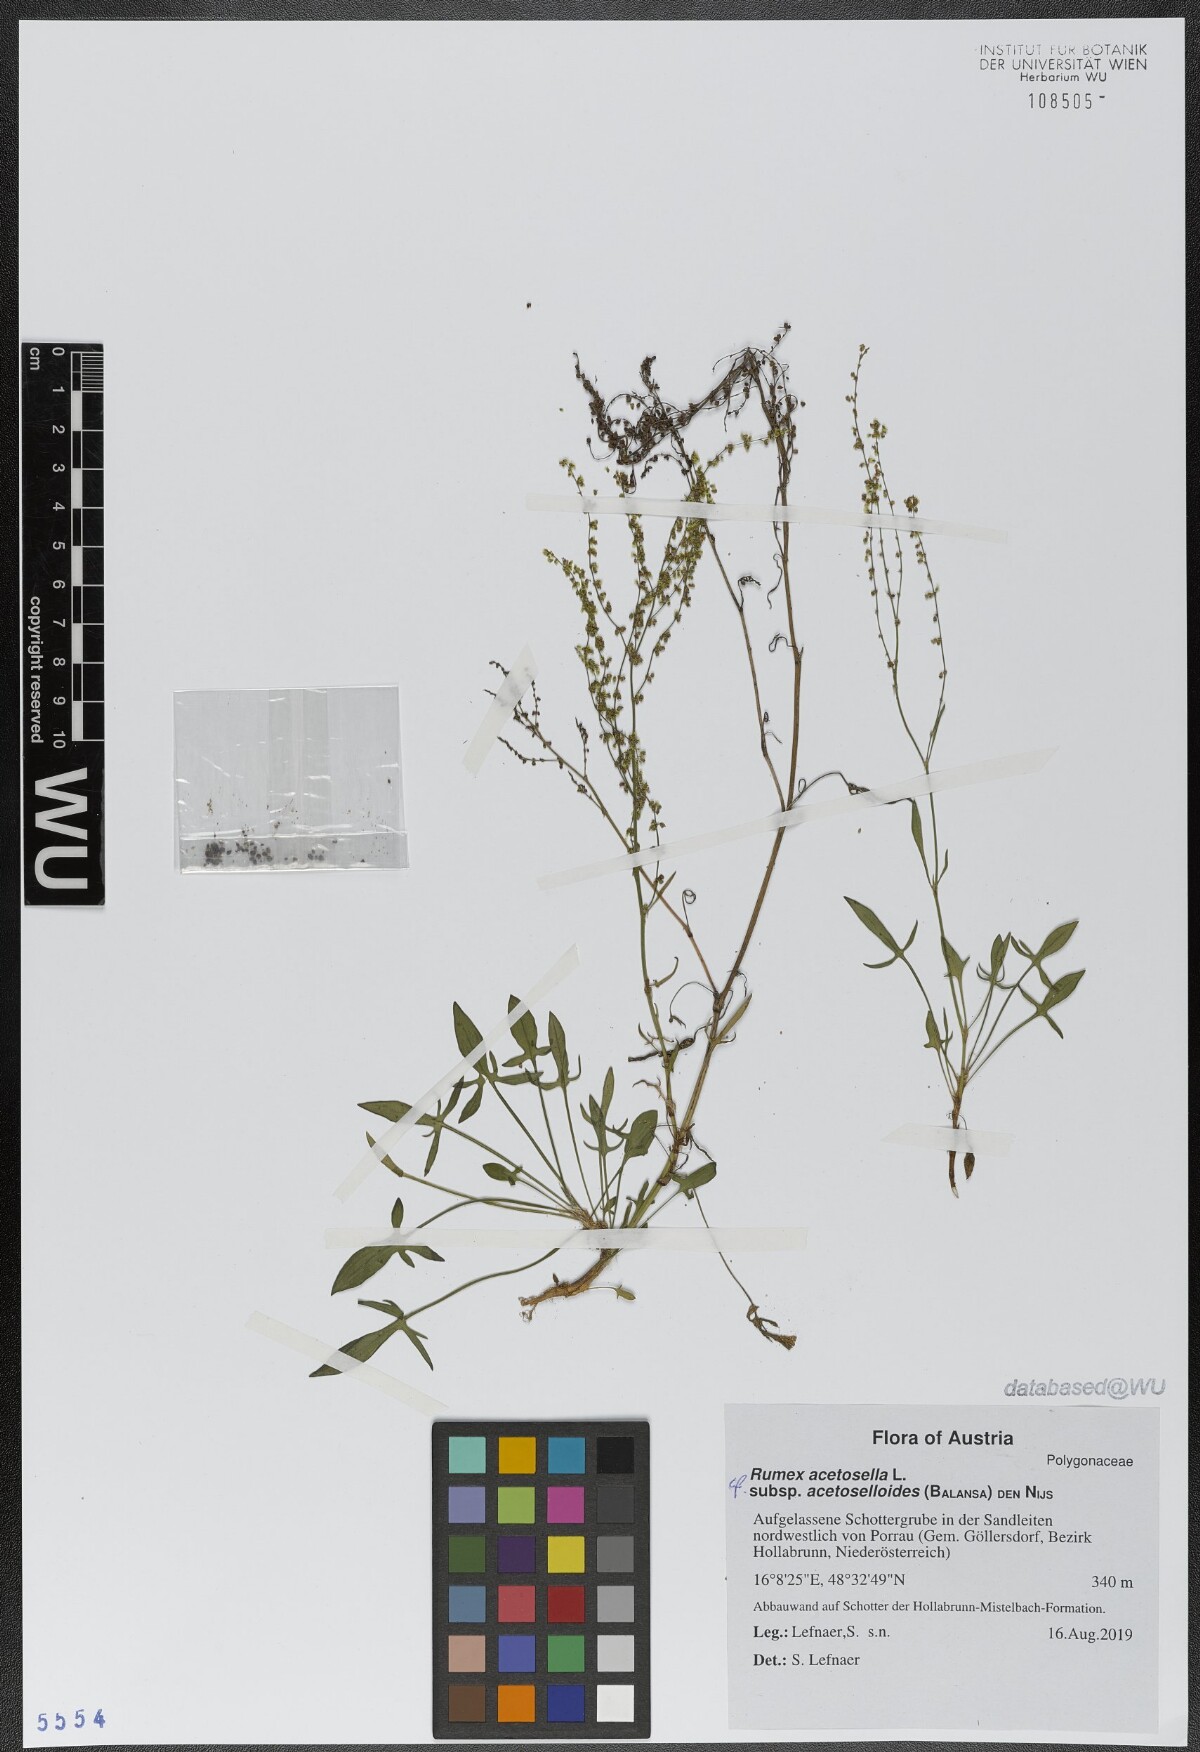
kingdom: Plantae
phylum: Tracheophyta
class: Magnoliopsida
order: Caryophyllales
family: Polygonaceae
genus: Rumex
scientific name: Rumex acetosella
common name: Common sheep sorrel
